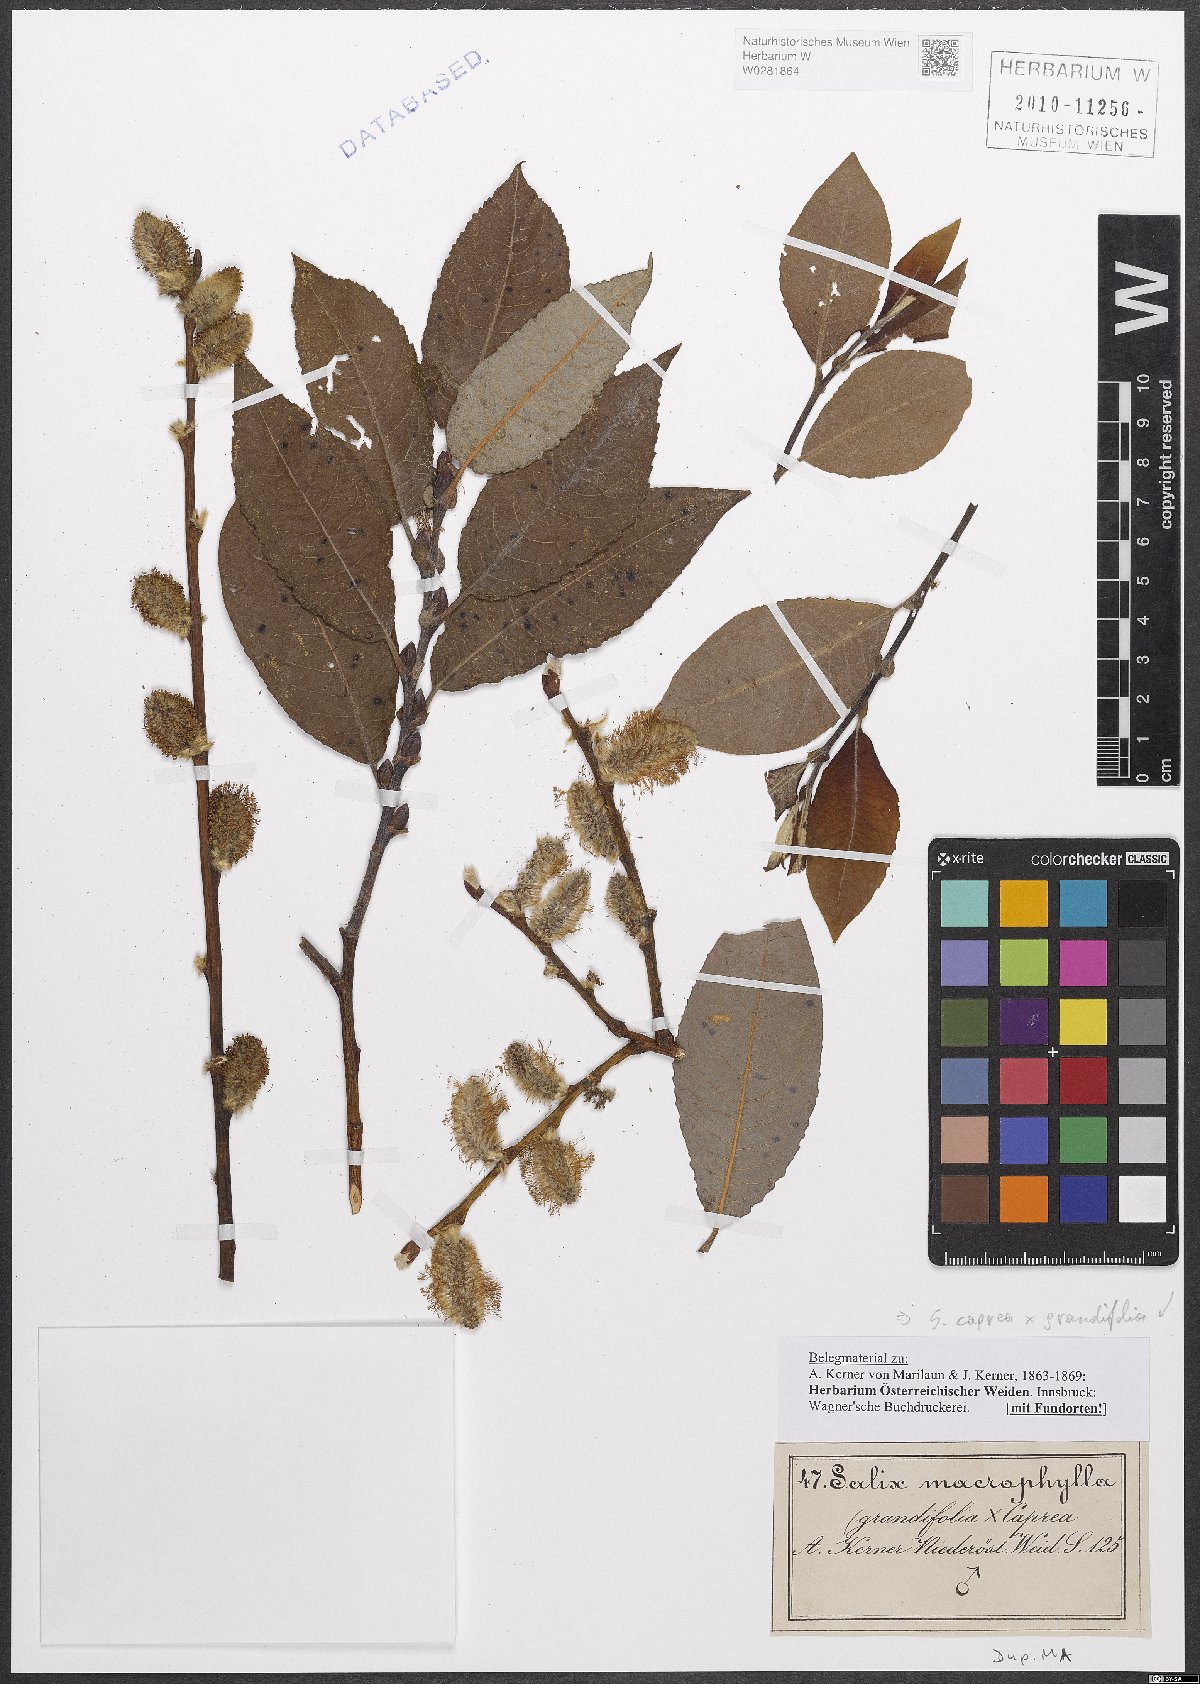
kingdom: Plantae
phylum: Tracheophyta
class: Magnoliopsida
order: Malpighiales
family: Salicaceae
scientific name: Salicaceae
